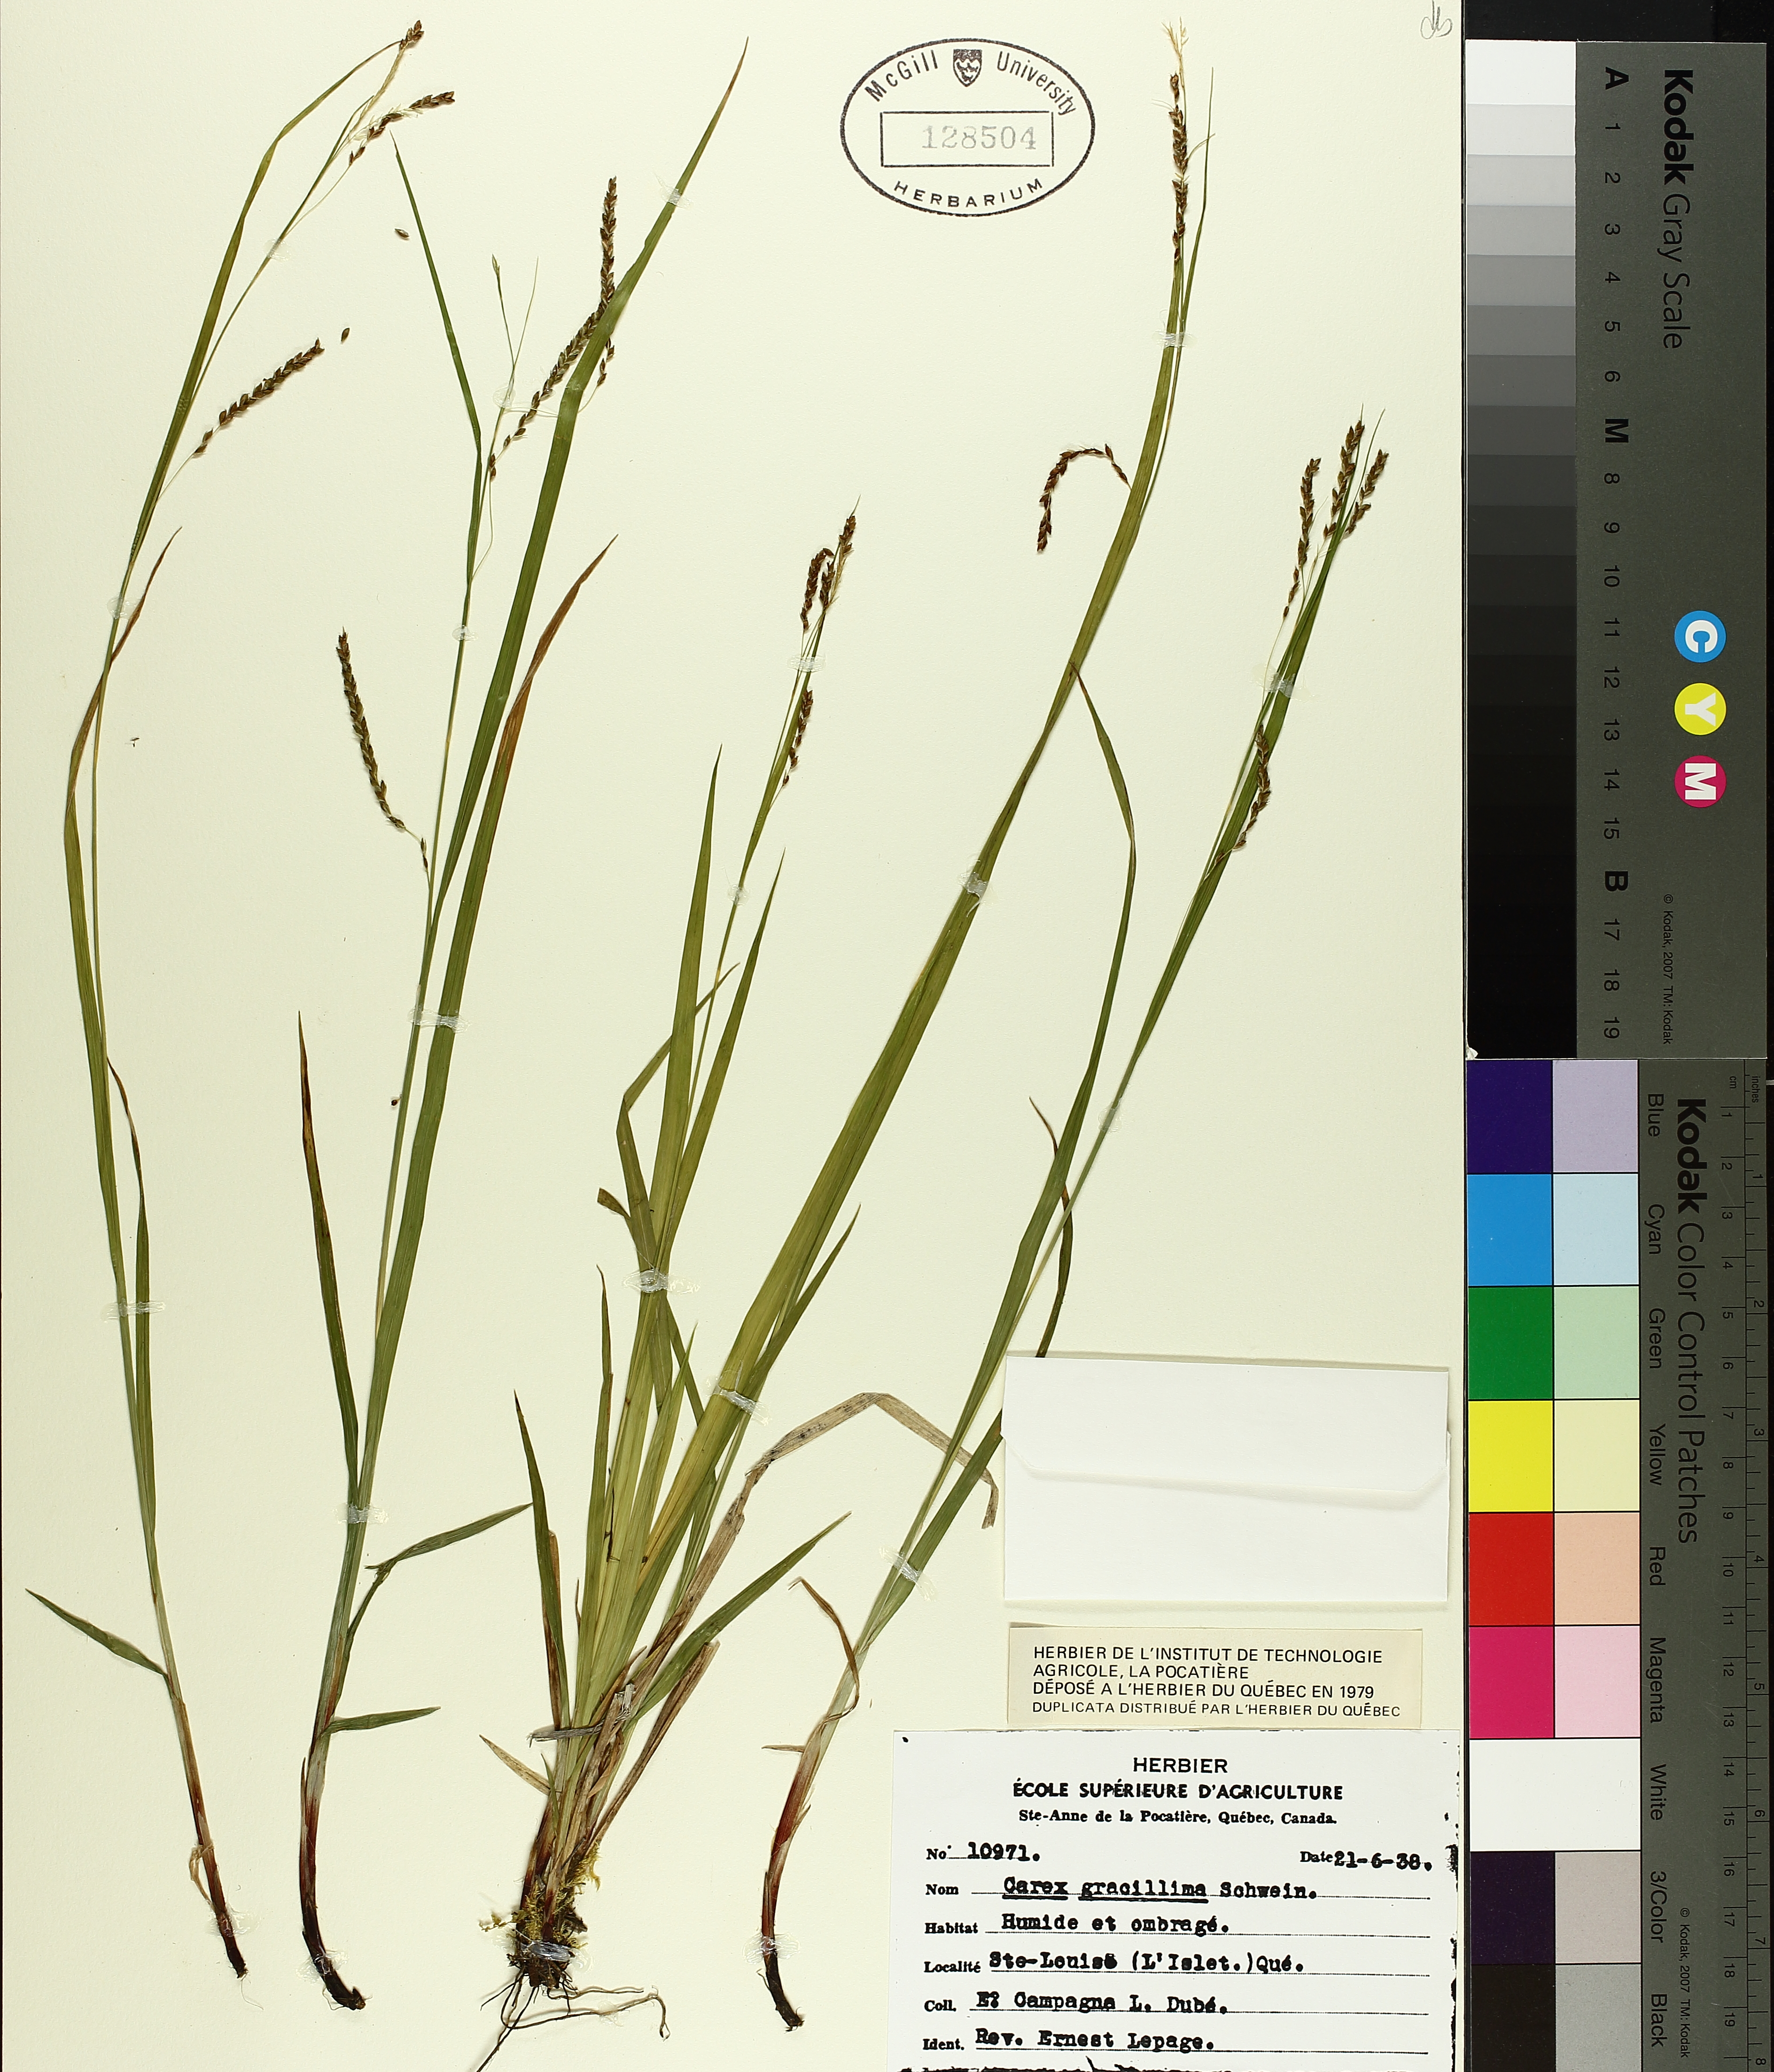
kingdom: Plantae
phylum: Tracheophyta
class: Liliopsida
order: Poales
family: Cyperaceae
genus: Carex
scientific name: Carex gracillima
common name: Graceful sedge
